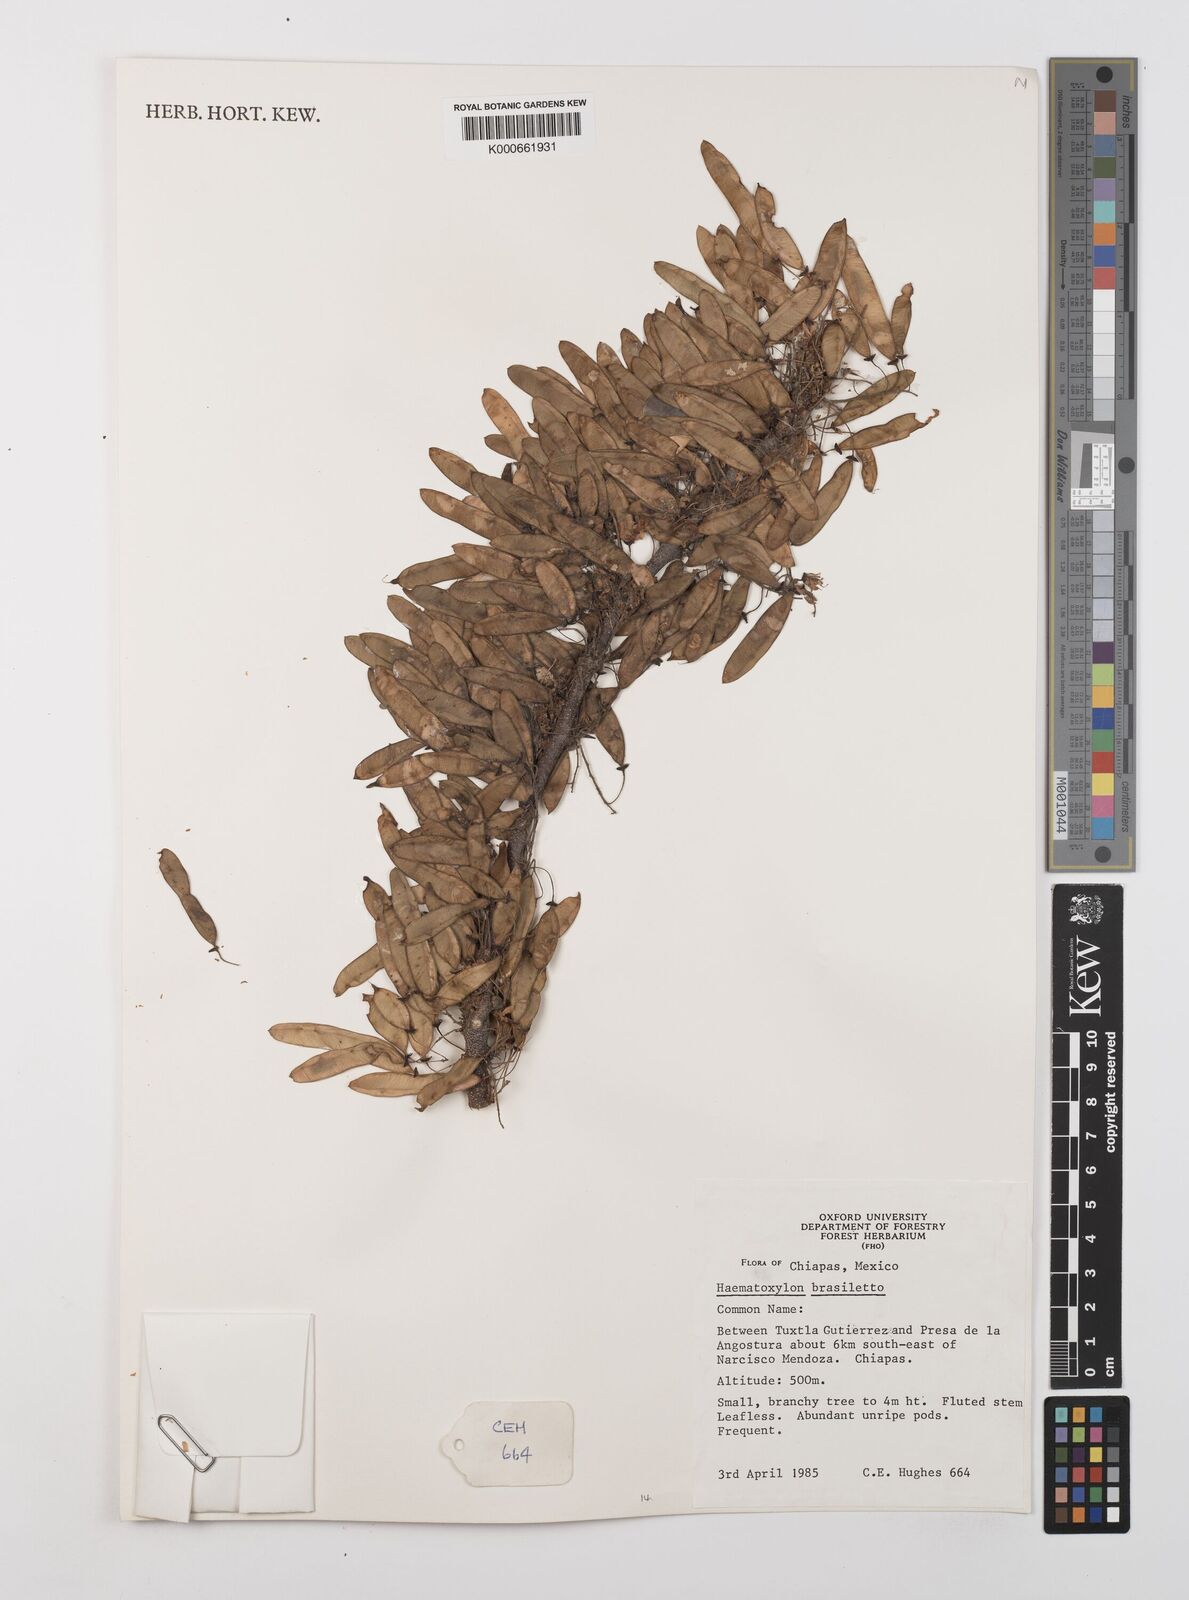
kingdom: Plantae
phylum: Tracheophyta
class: Magnoliopsida
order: Fabales
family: Fabaceae
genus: Haematoxylum
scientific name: Haematoxylum brasiletto
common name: Peachwood
